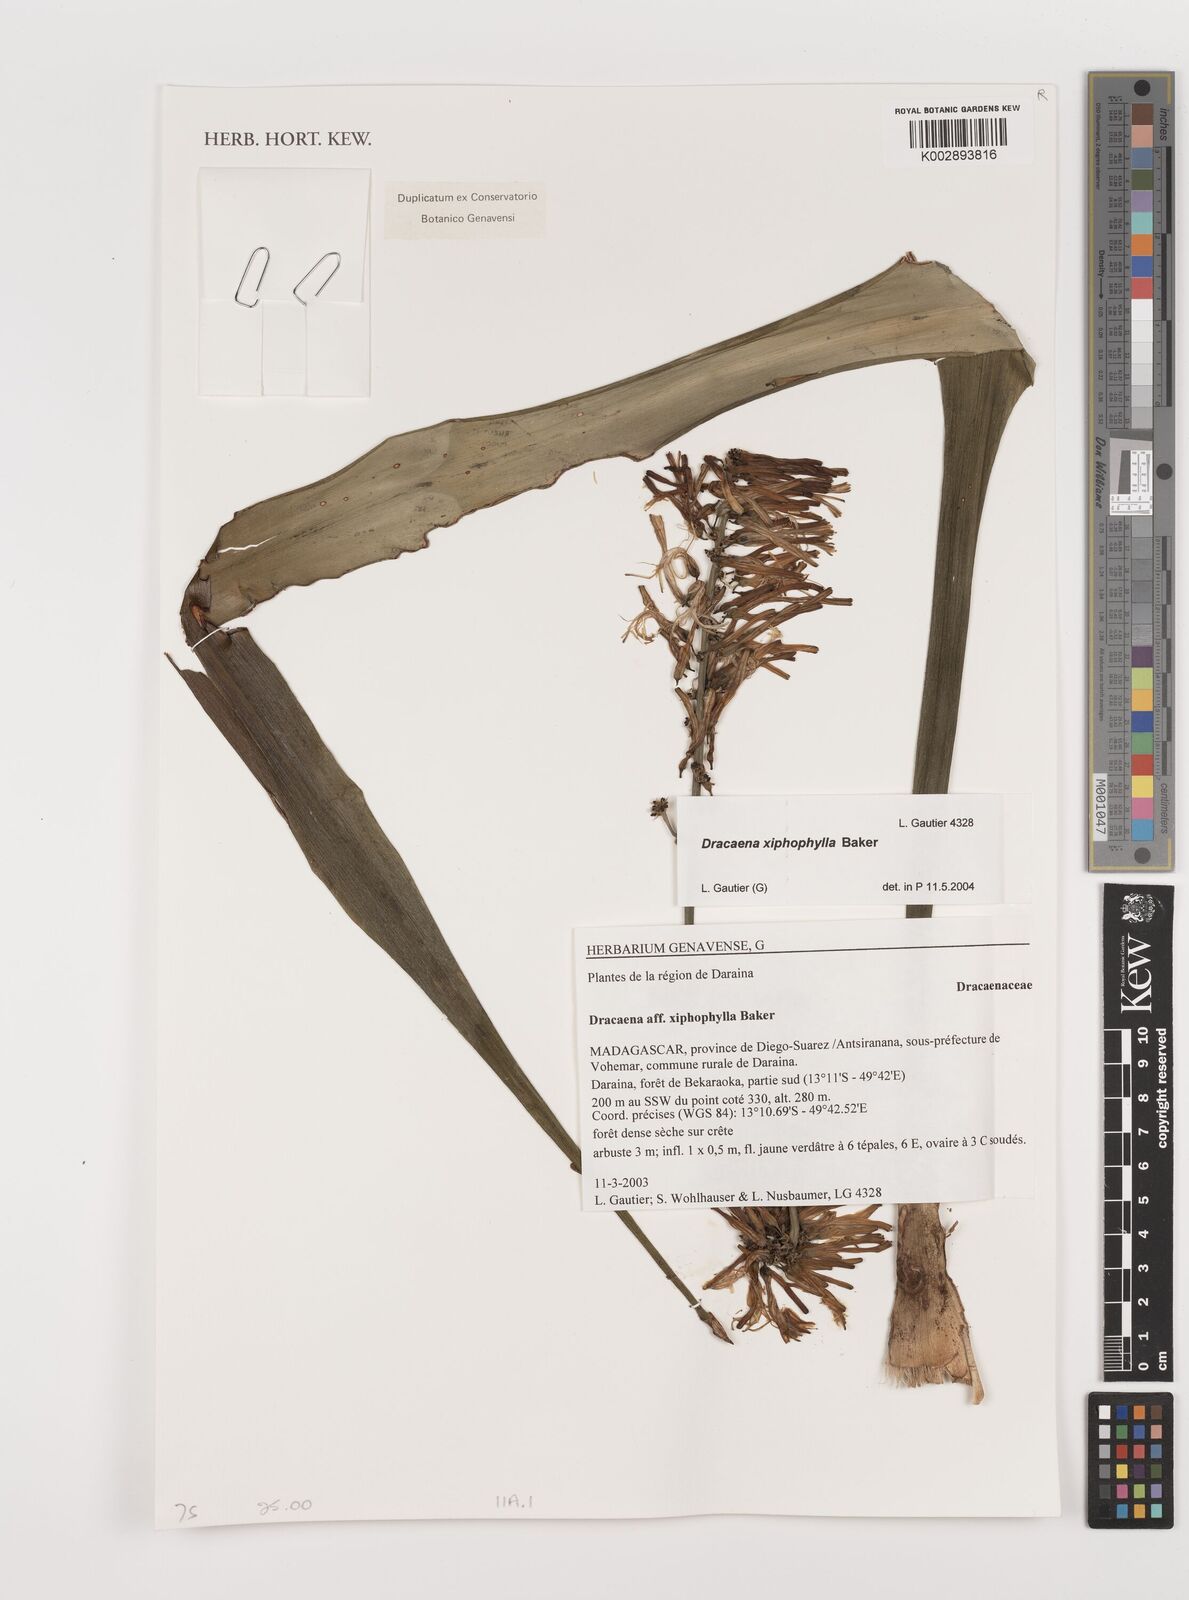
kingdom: Plantae
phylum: Tracheophyta
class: Liliopsida
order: Asparagales
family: Asparagaceae
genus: Dracaena
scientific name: Dracaena xiphophylla
